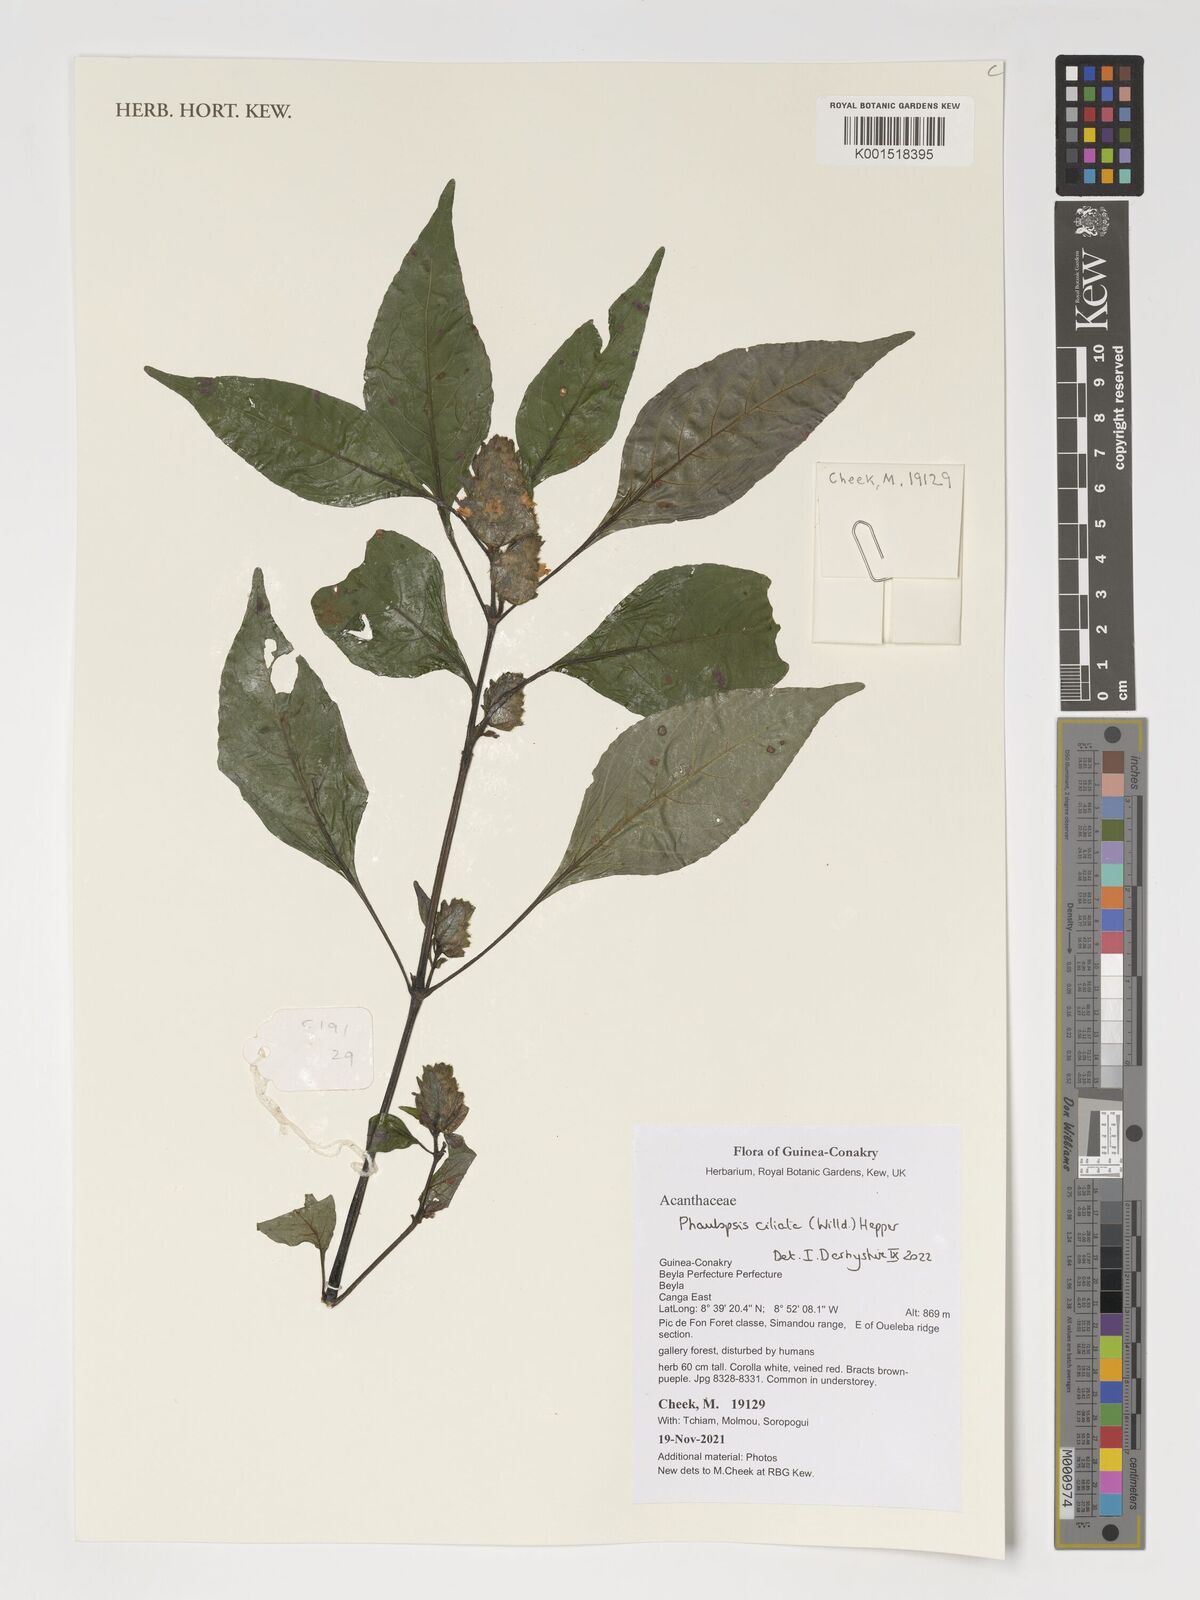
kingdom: Plantae
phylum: Tracheophyta
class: Magnoliopsida
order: Lamiales
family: Acanthaceae
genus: Phaulopsis
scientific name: Phaulopsis ciliata
